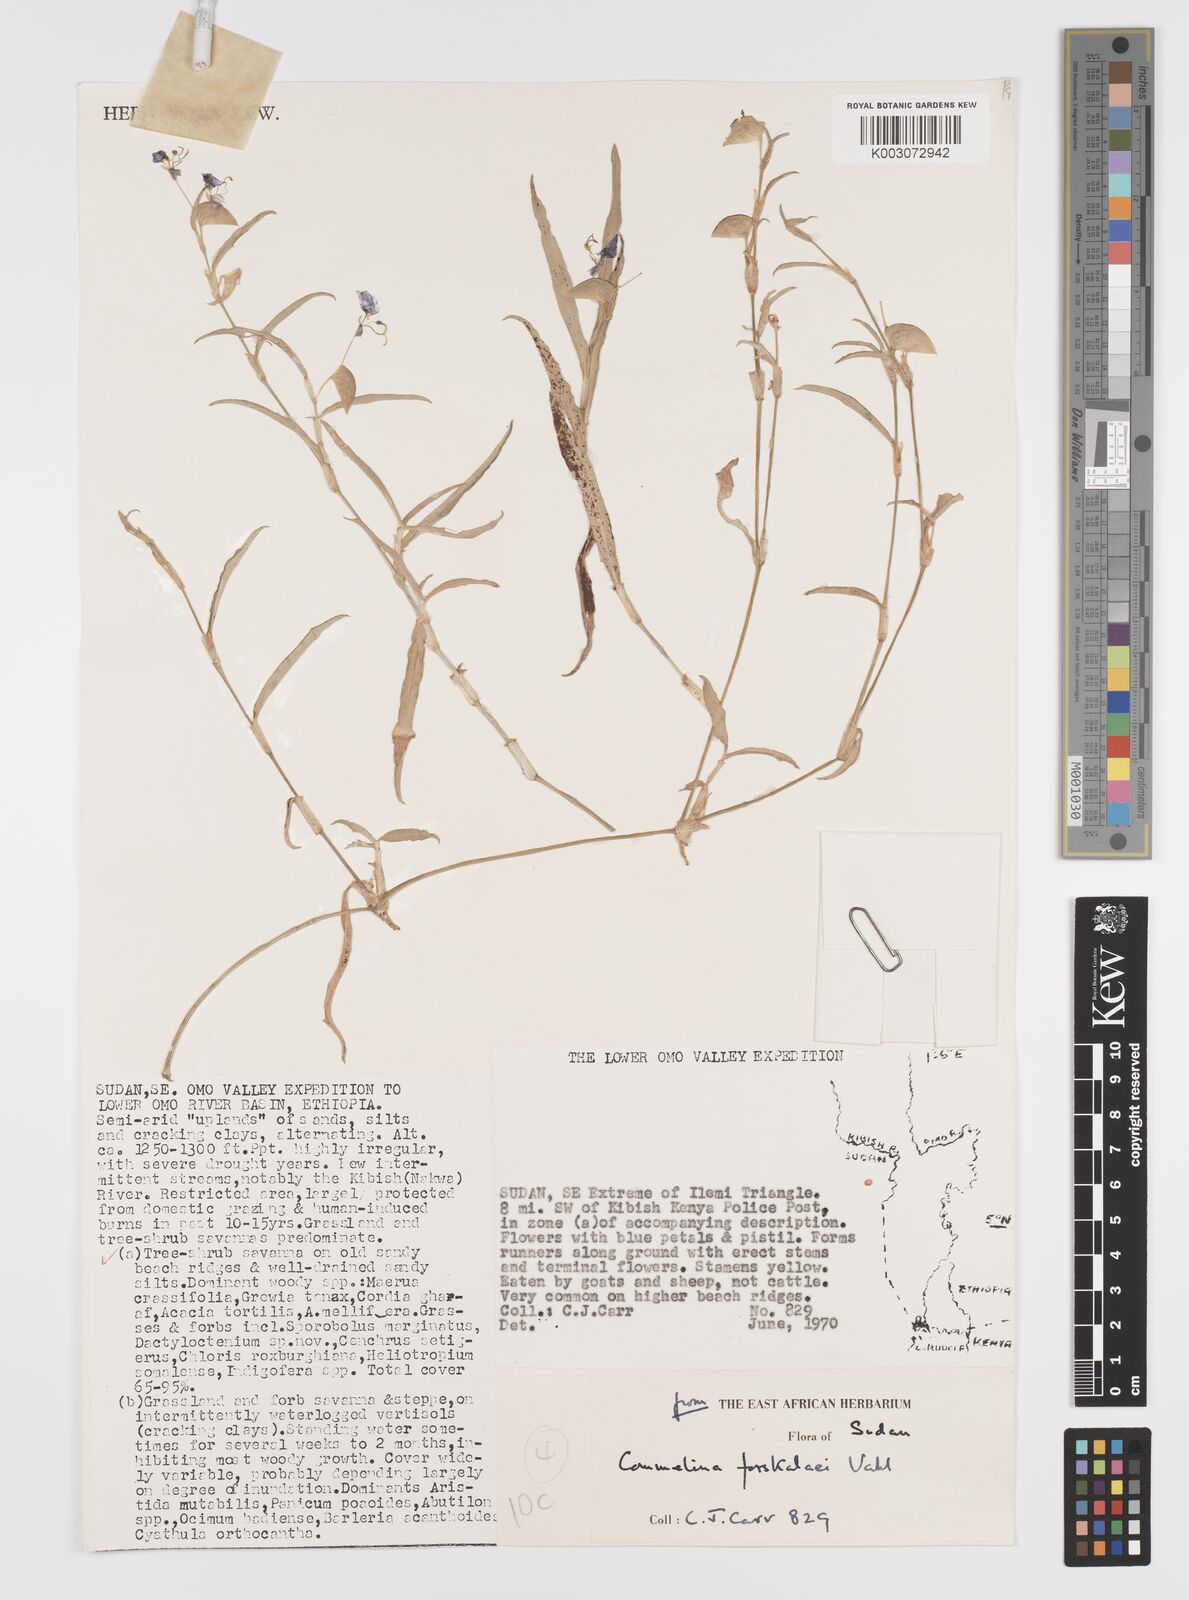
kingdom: Plantae
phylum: Tracheophyta
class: Liliopsida
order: Commelinales
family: Commelinaceae
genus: Commelina
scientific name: Commelina forskaolii
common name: Rat's ear
